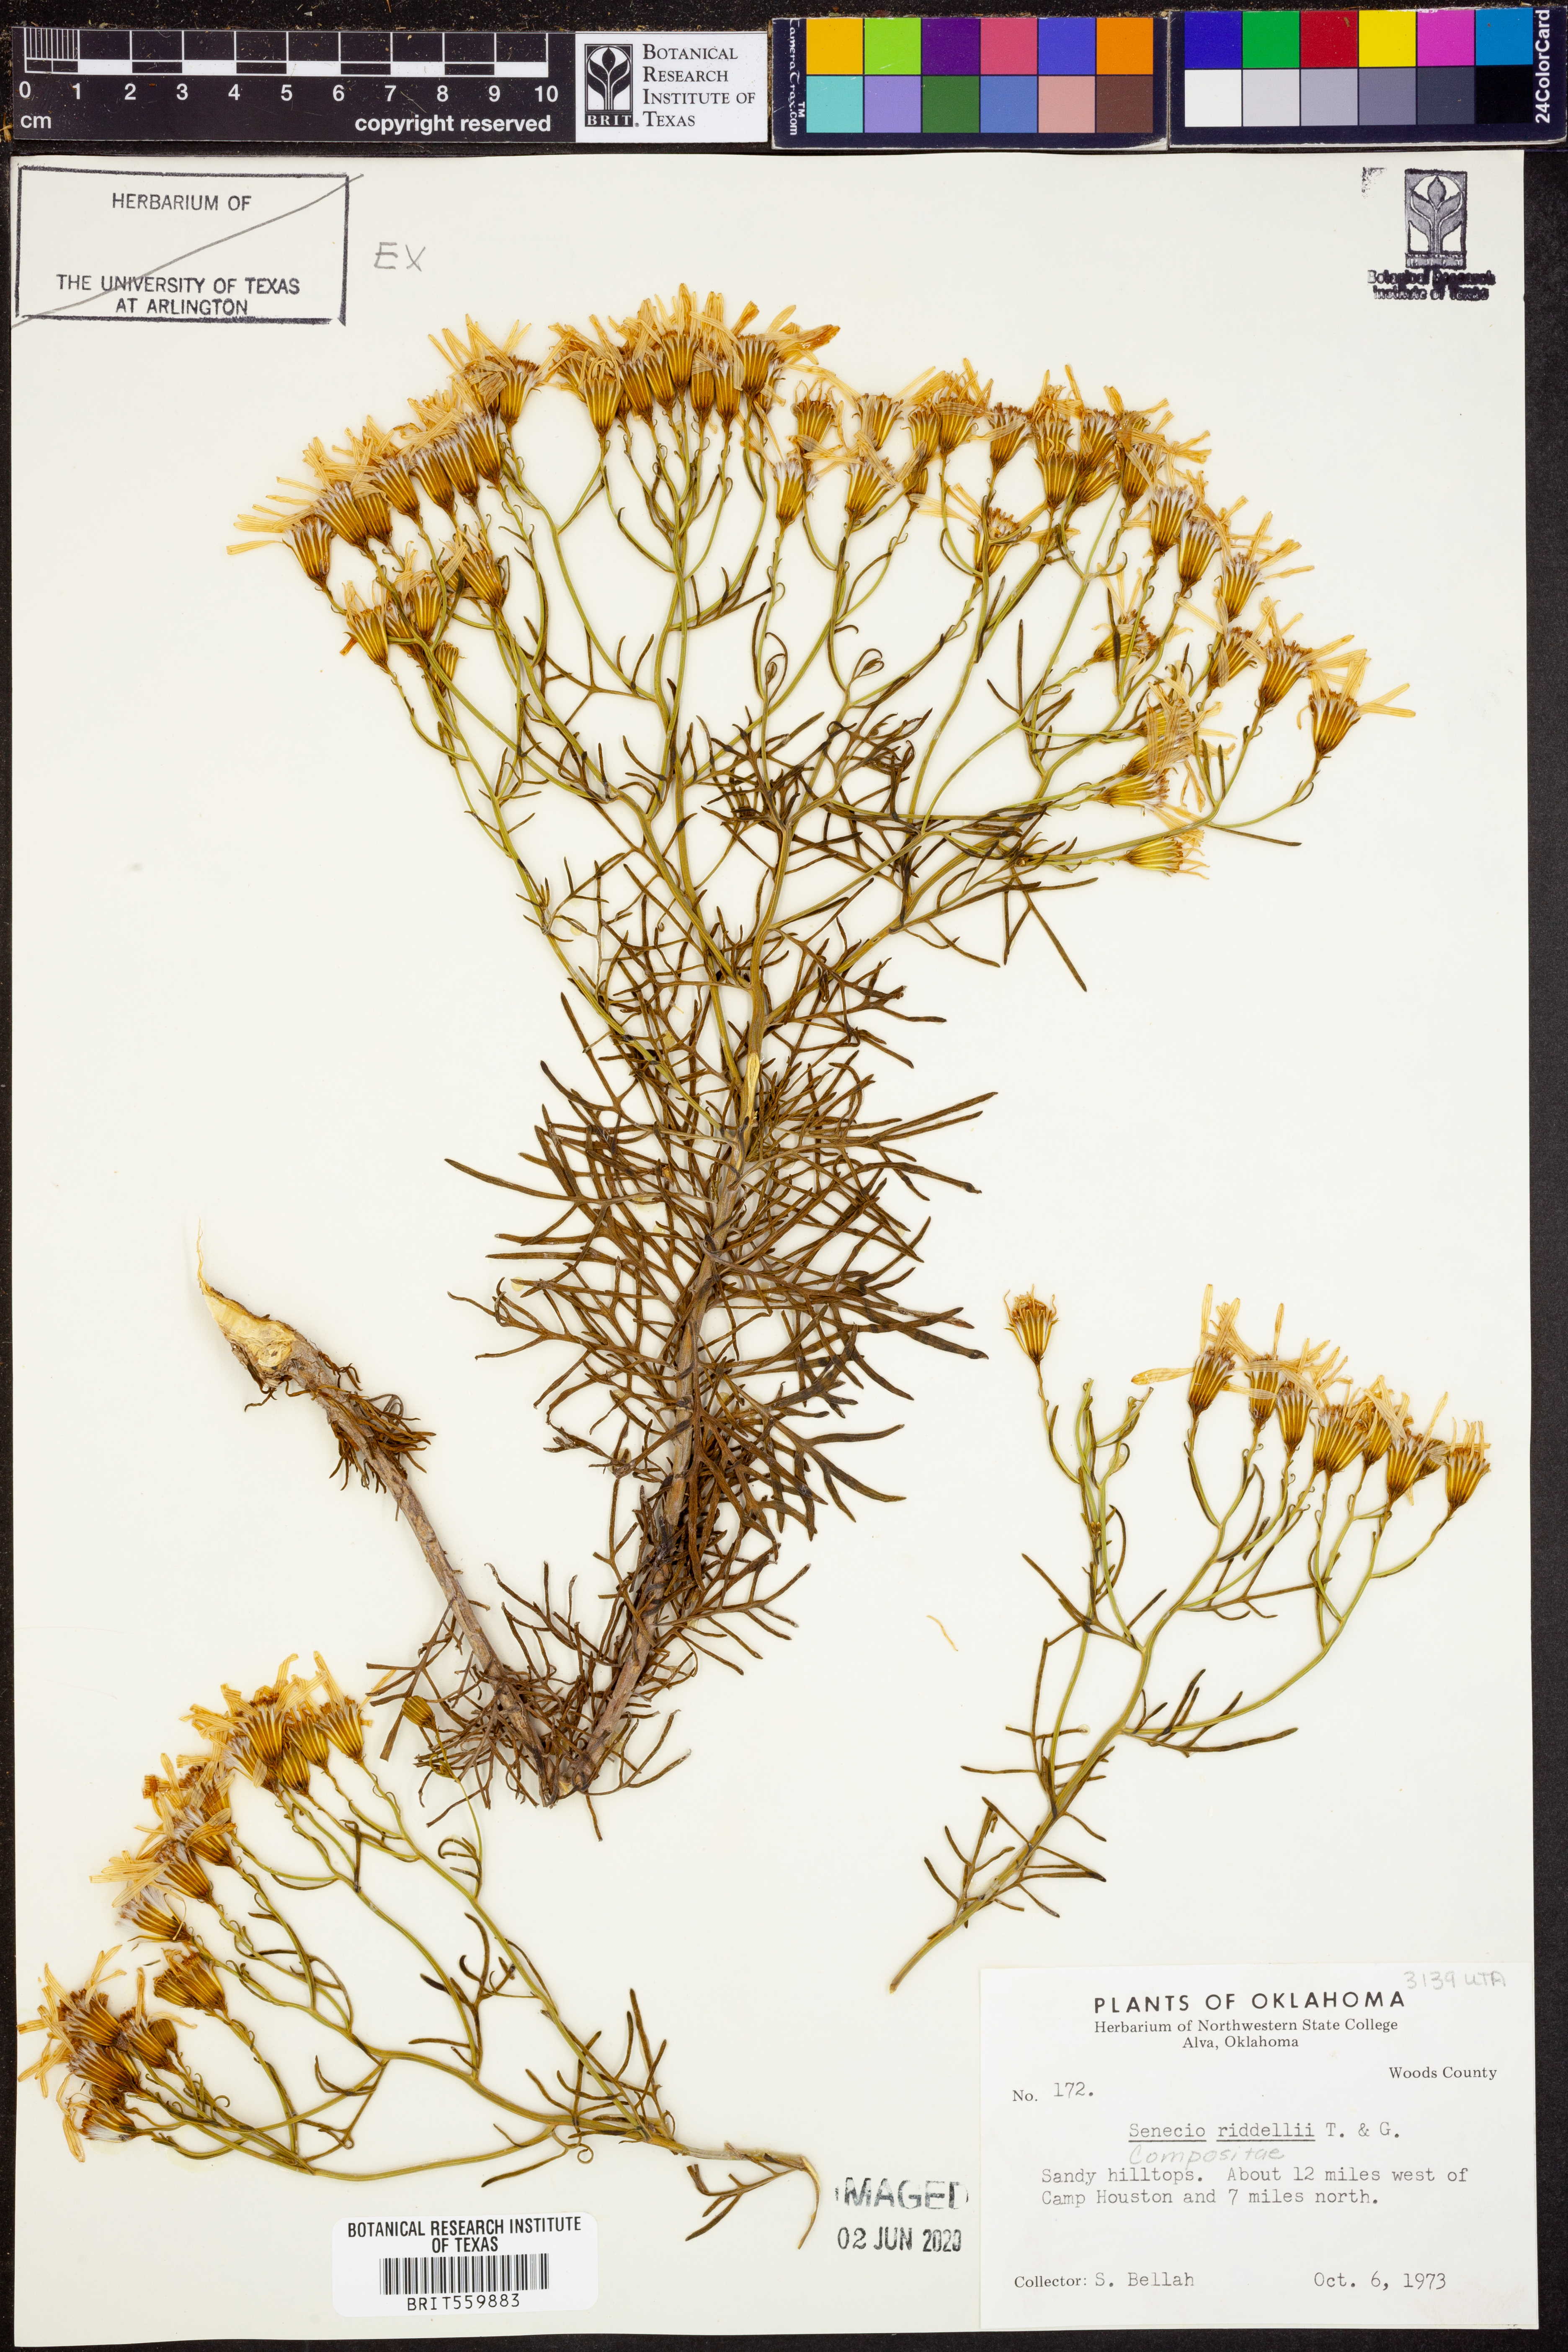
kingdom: Plantae
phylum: Tracheophyta
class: Magnoliopsida
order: Asterales
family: Asteraceae
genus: Senecio
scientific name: Senecio riddellii
